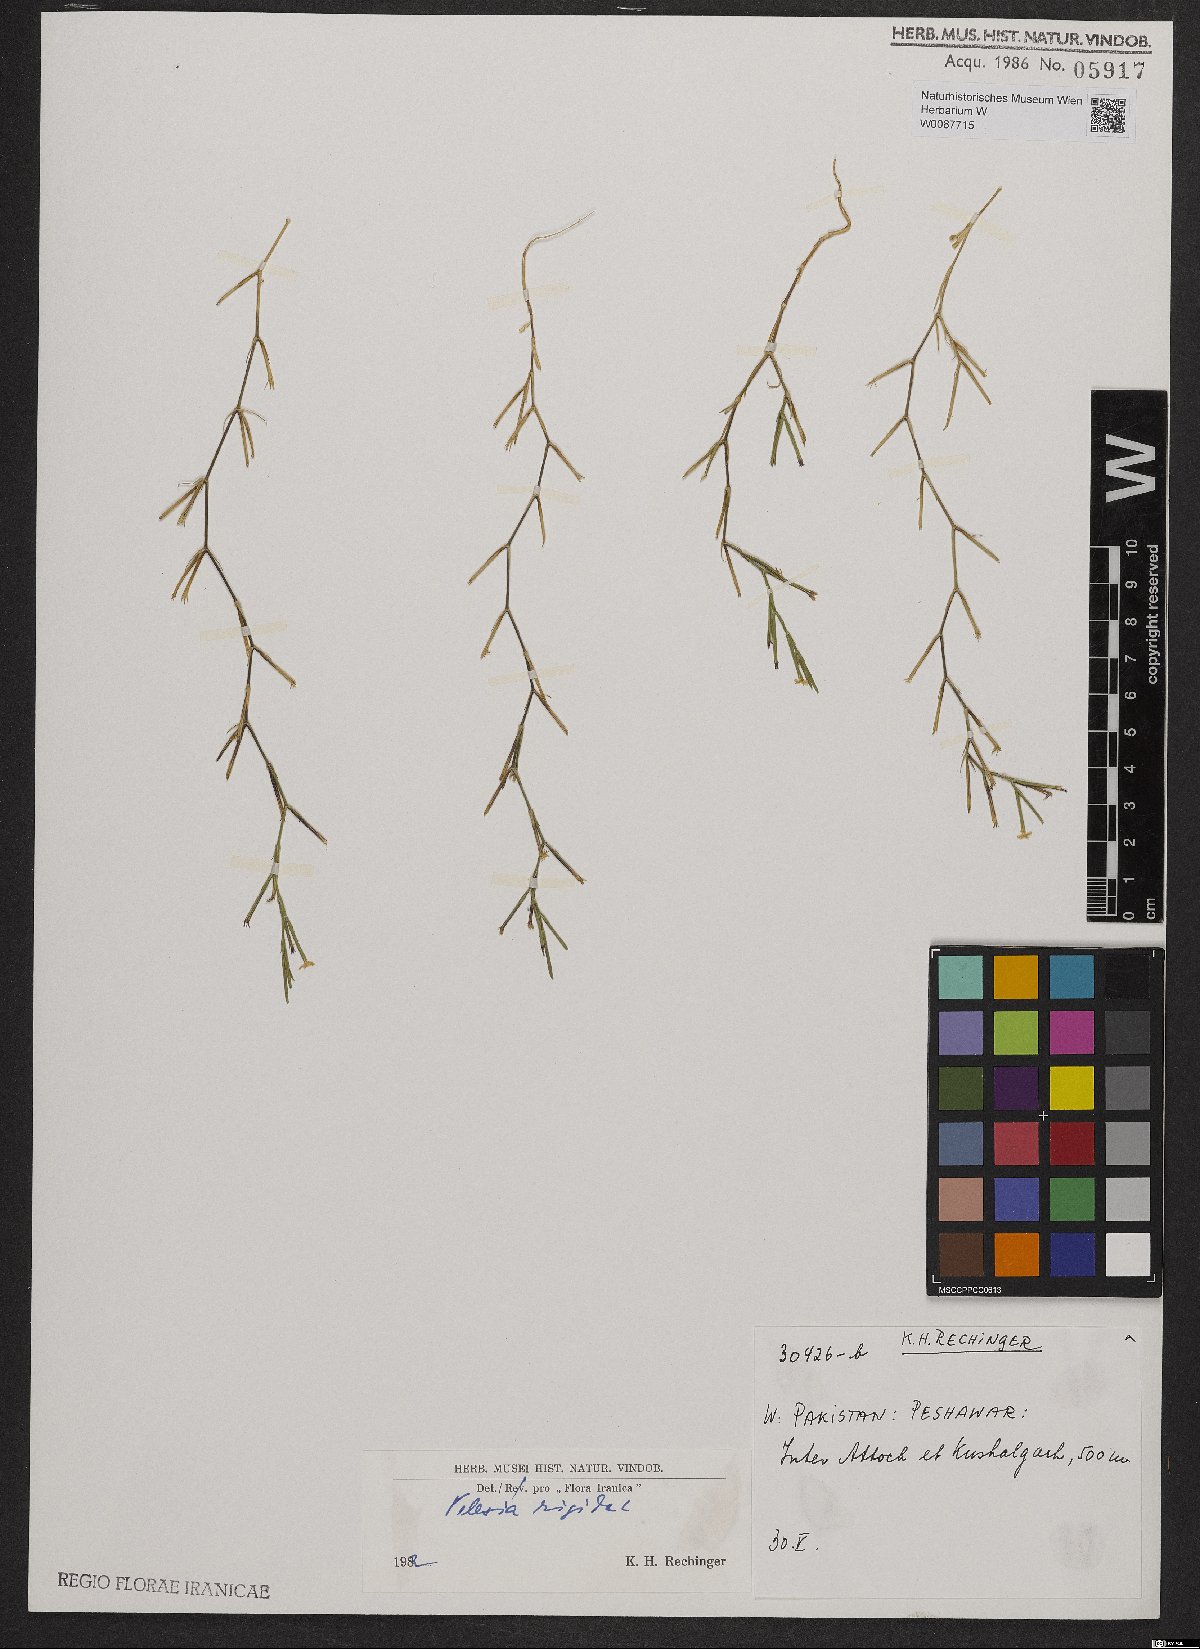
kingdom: Plantae
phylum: Tracheophyta
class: Magnoliopsida
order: Caryophyllales
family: Caryophyllaceae
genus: Dianthus
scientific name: Dianthus nudiflorus
